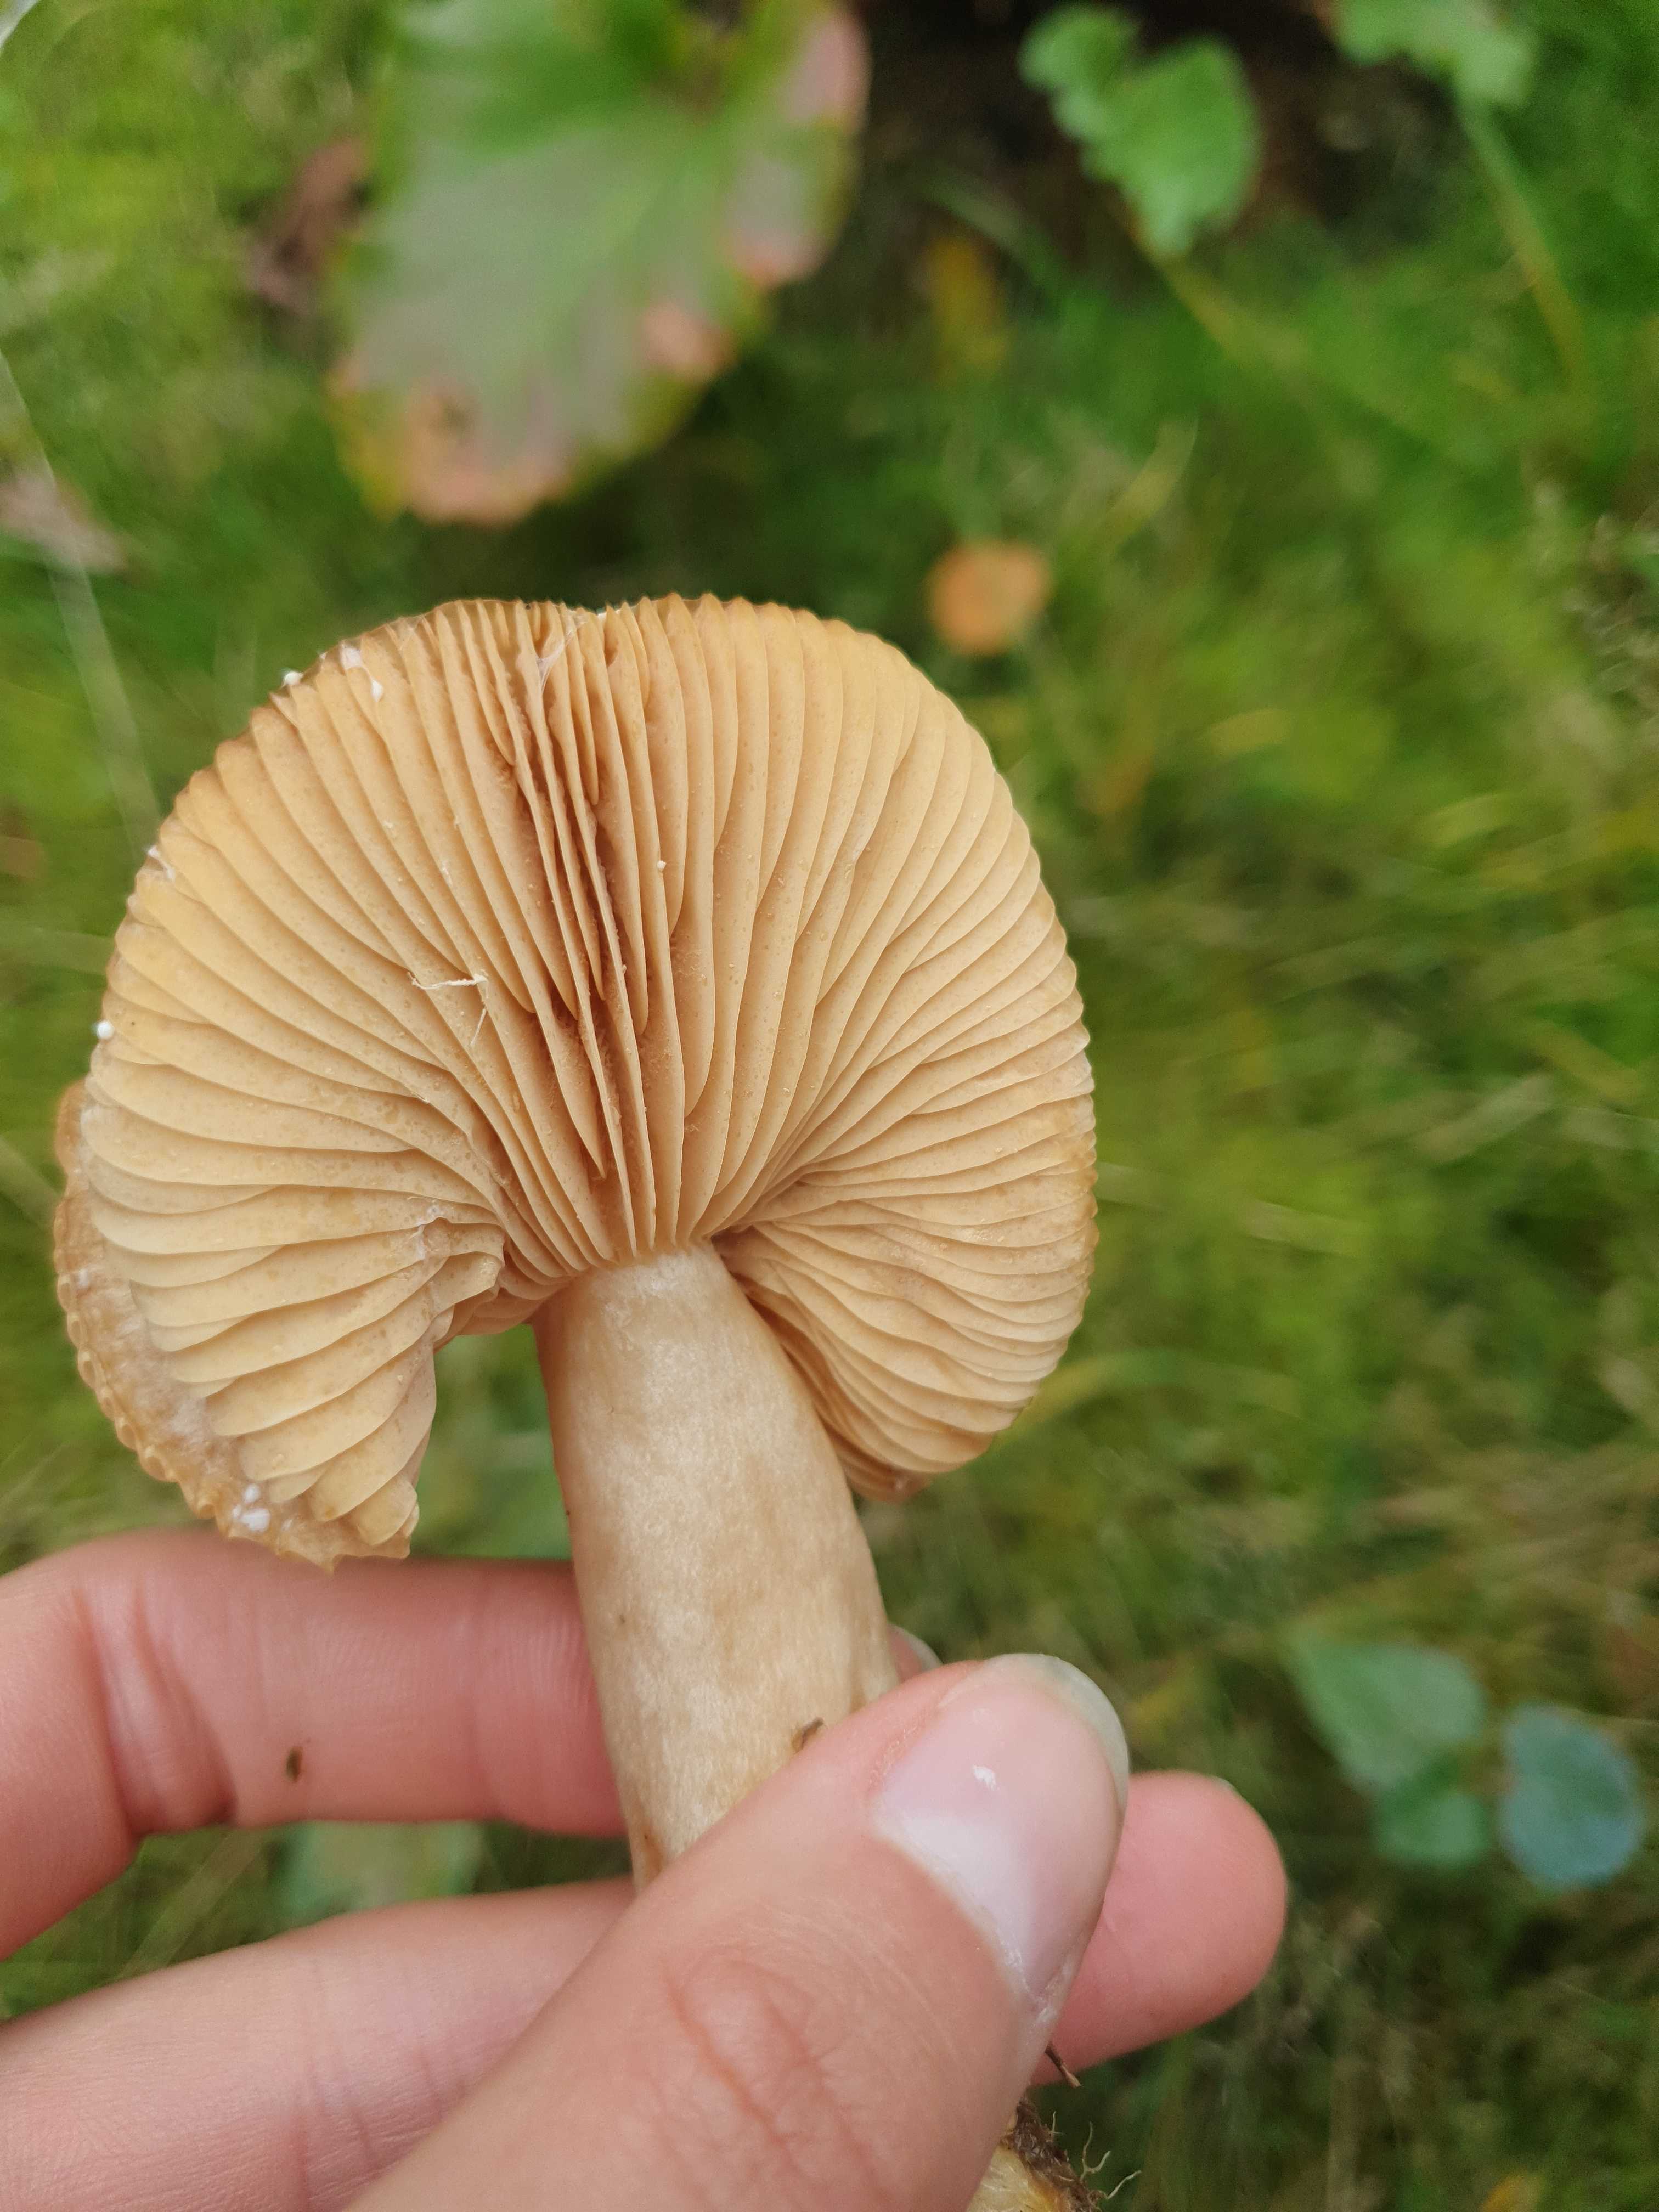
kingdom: Fungi
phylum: Basidiomycota
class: Agaricomycetes
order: Russulales
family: Russulaceae
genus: Lactarius
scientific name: Lactarius
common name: mælkehat
